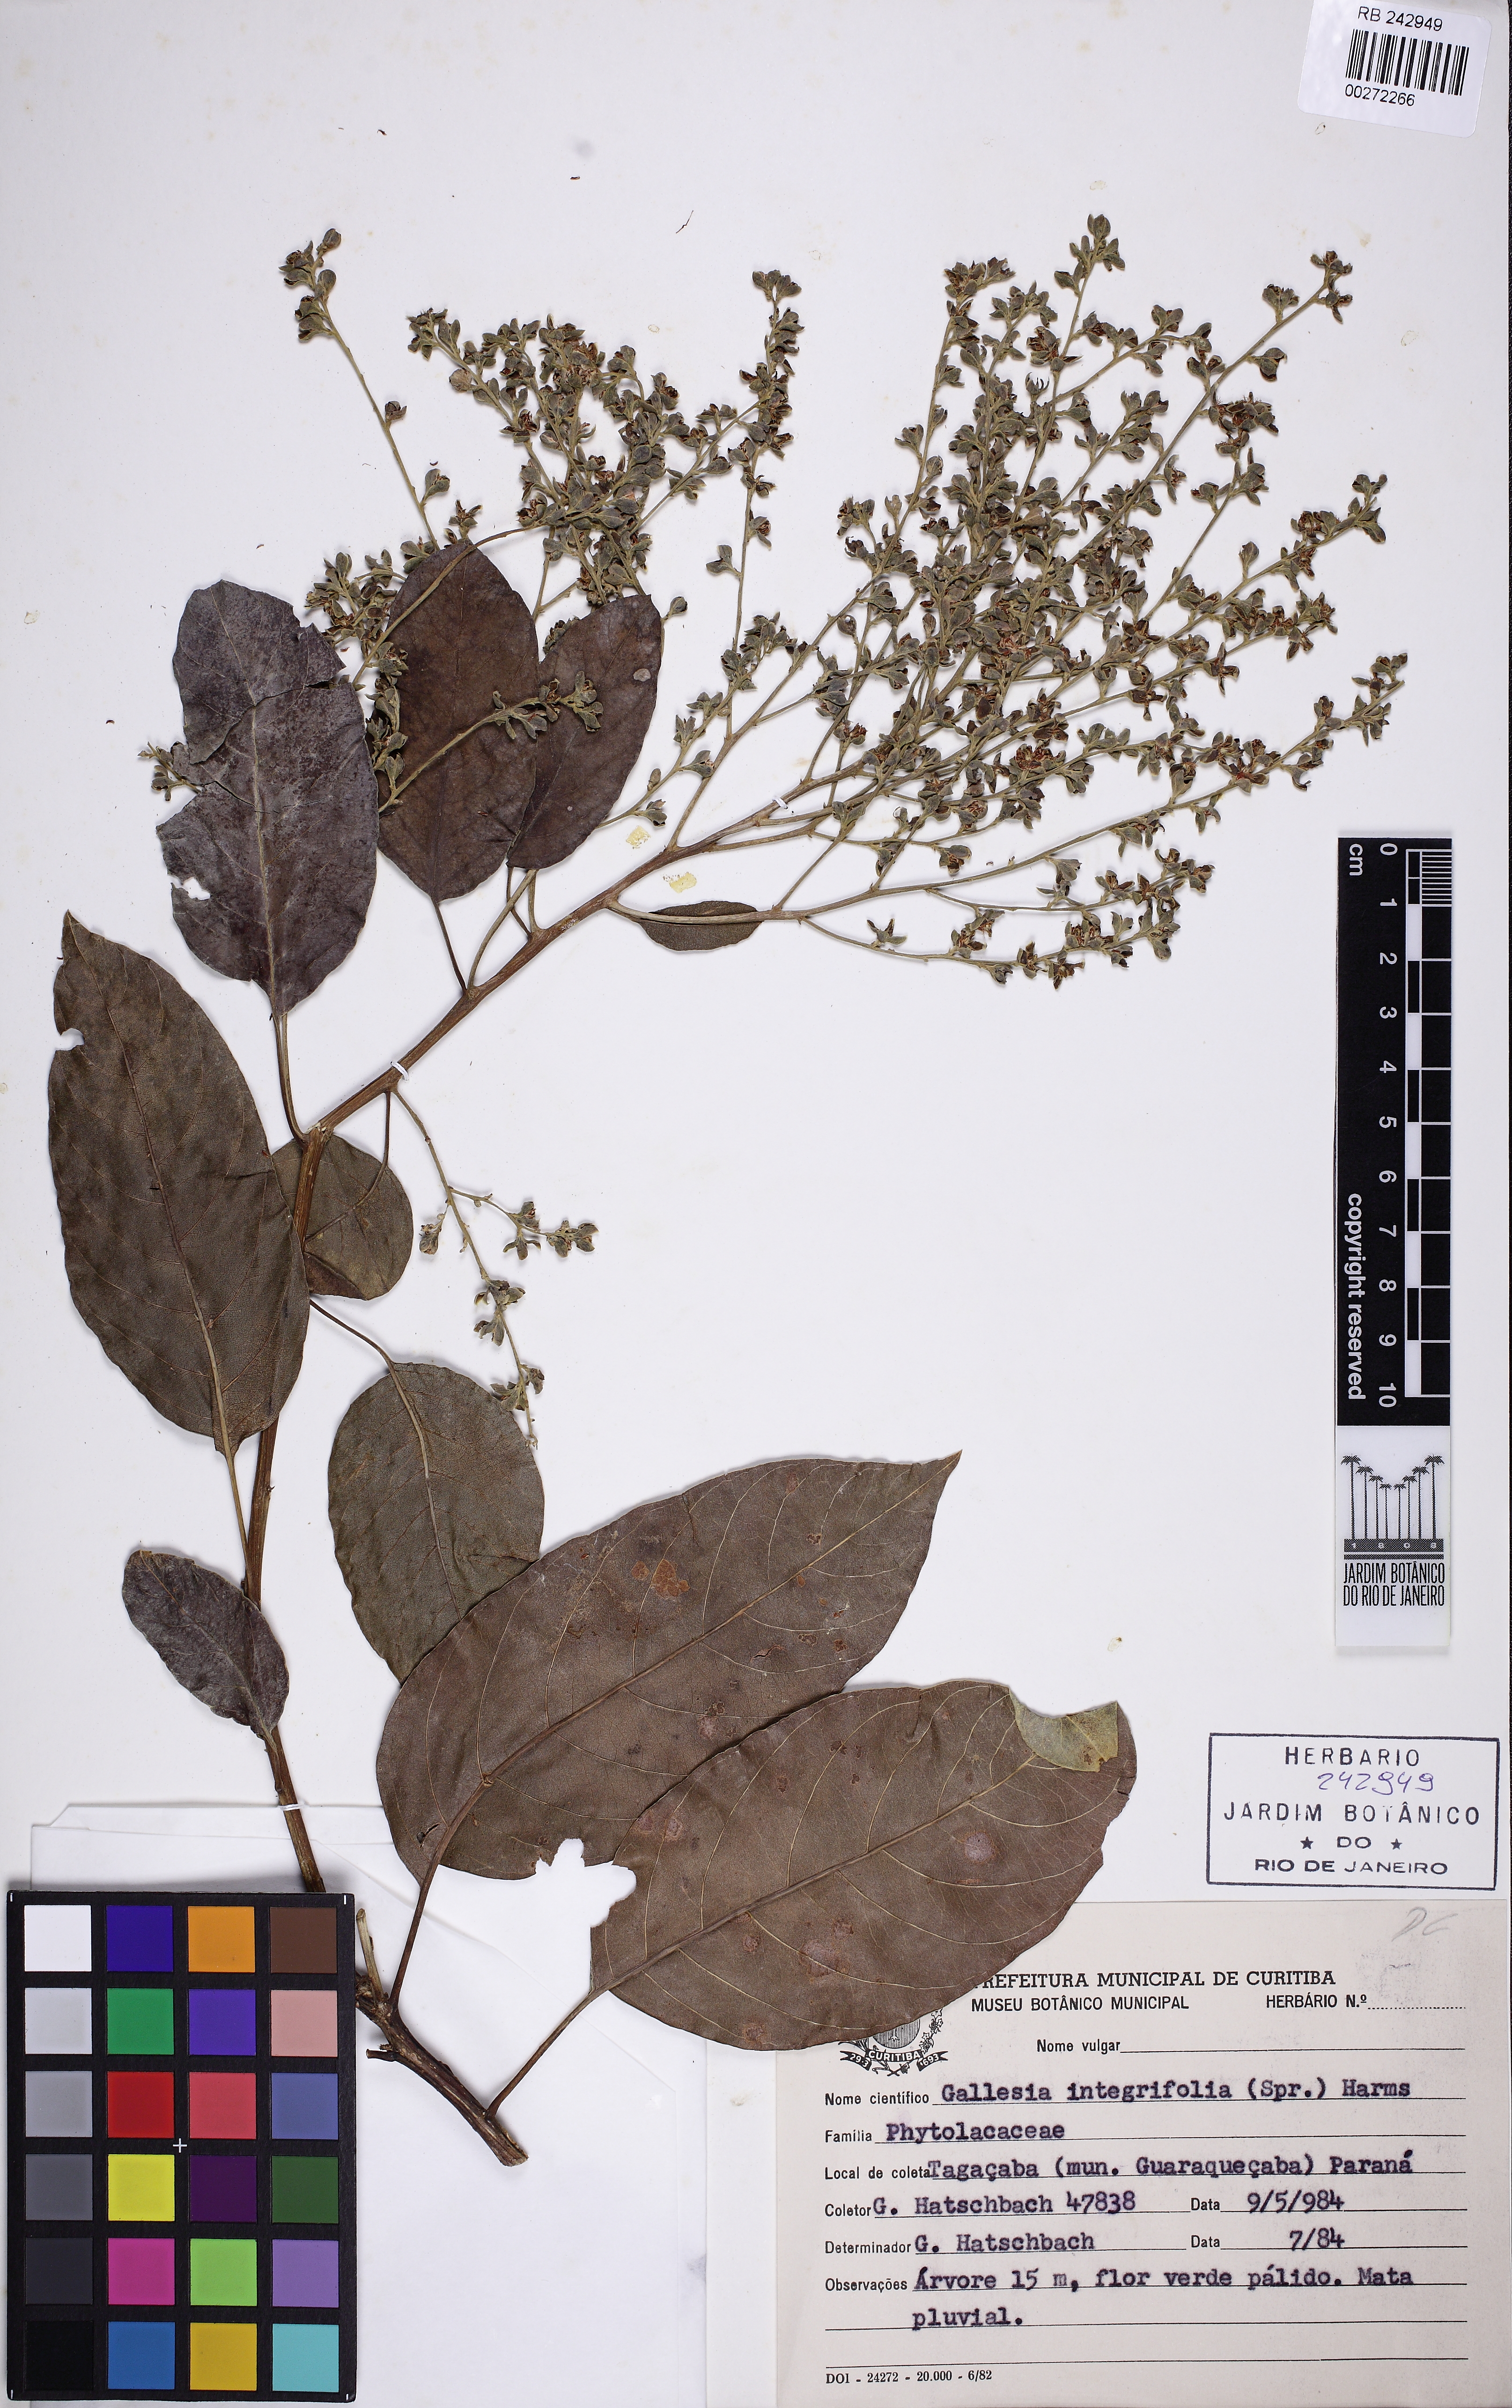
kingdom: Plantae
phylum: Tracheophyta
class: Magnoliopsida
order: Caryophyllales
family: Phytolaccaceae
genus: Gallesia
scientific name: Gallesia integrifolia
